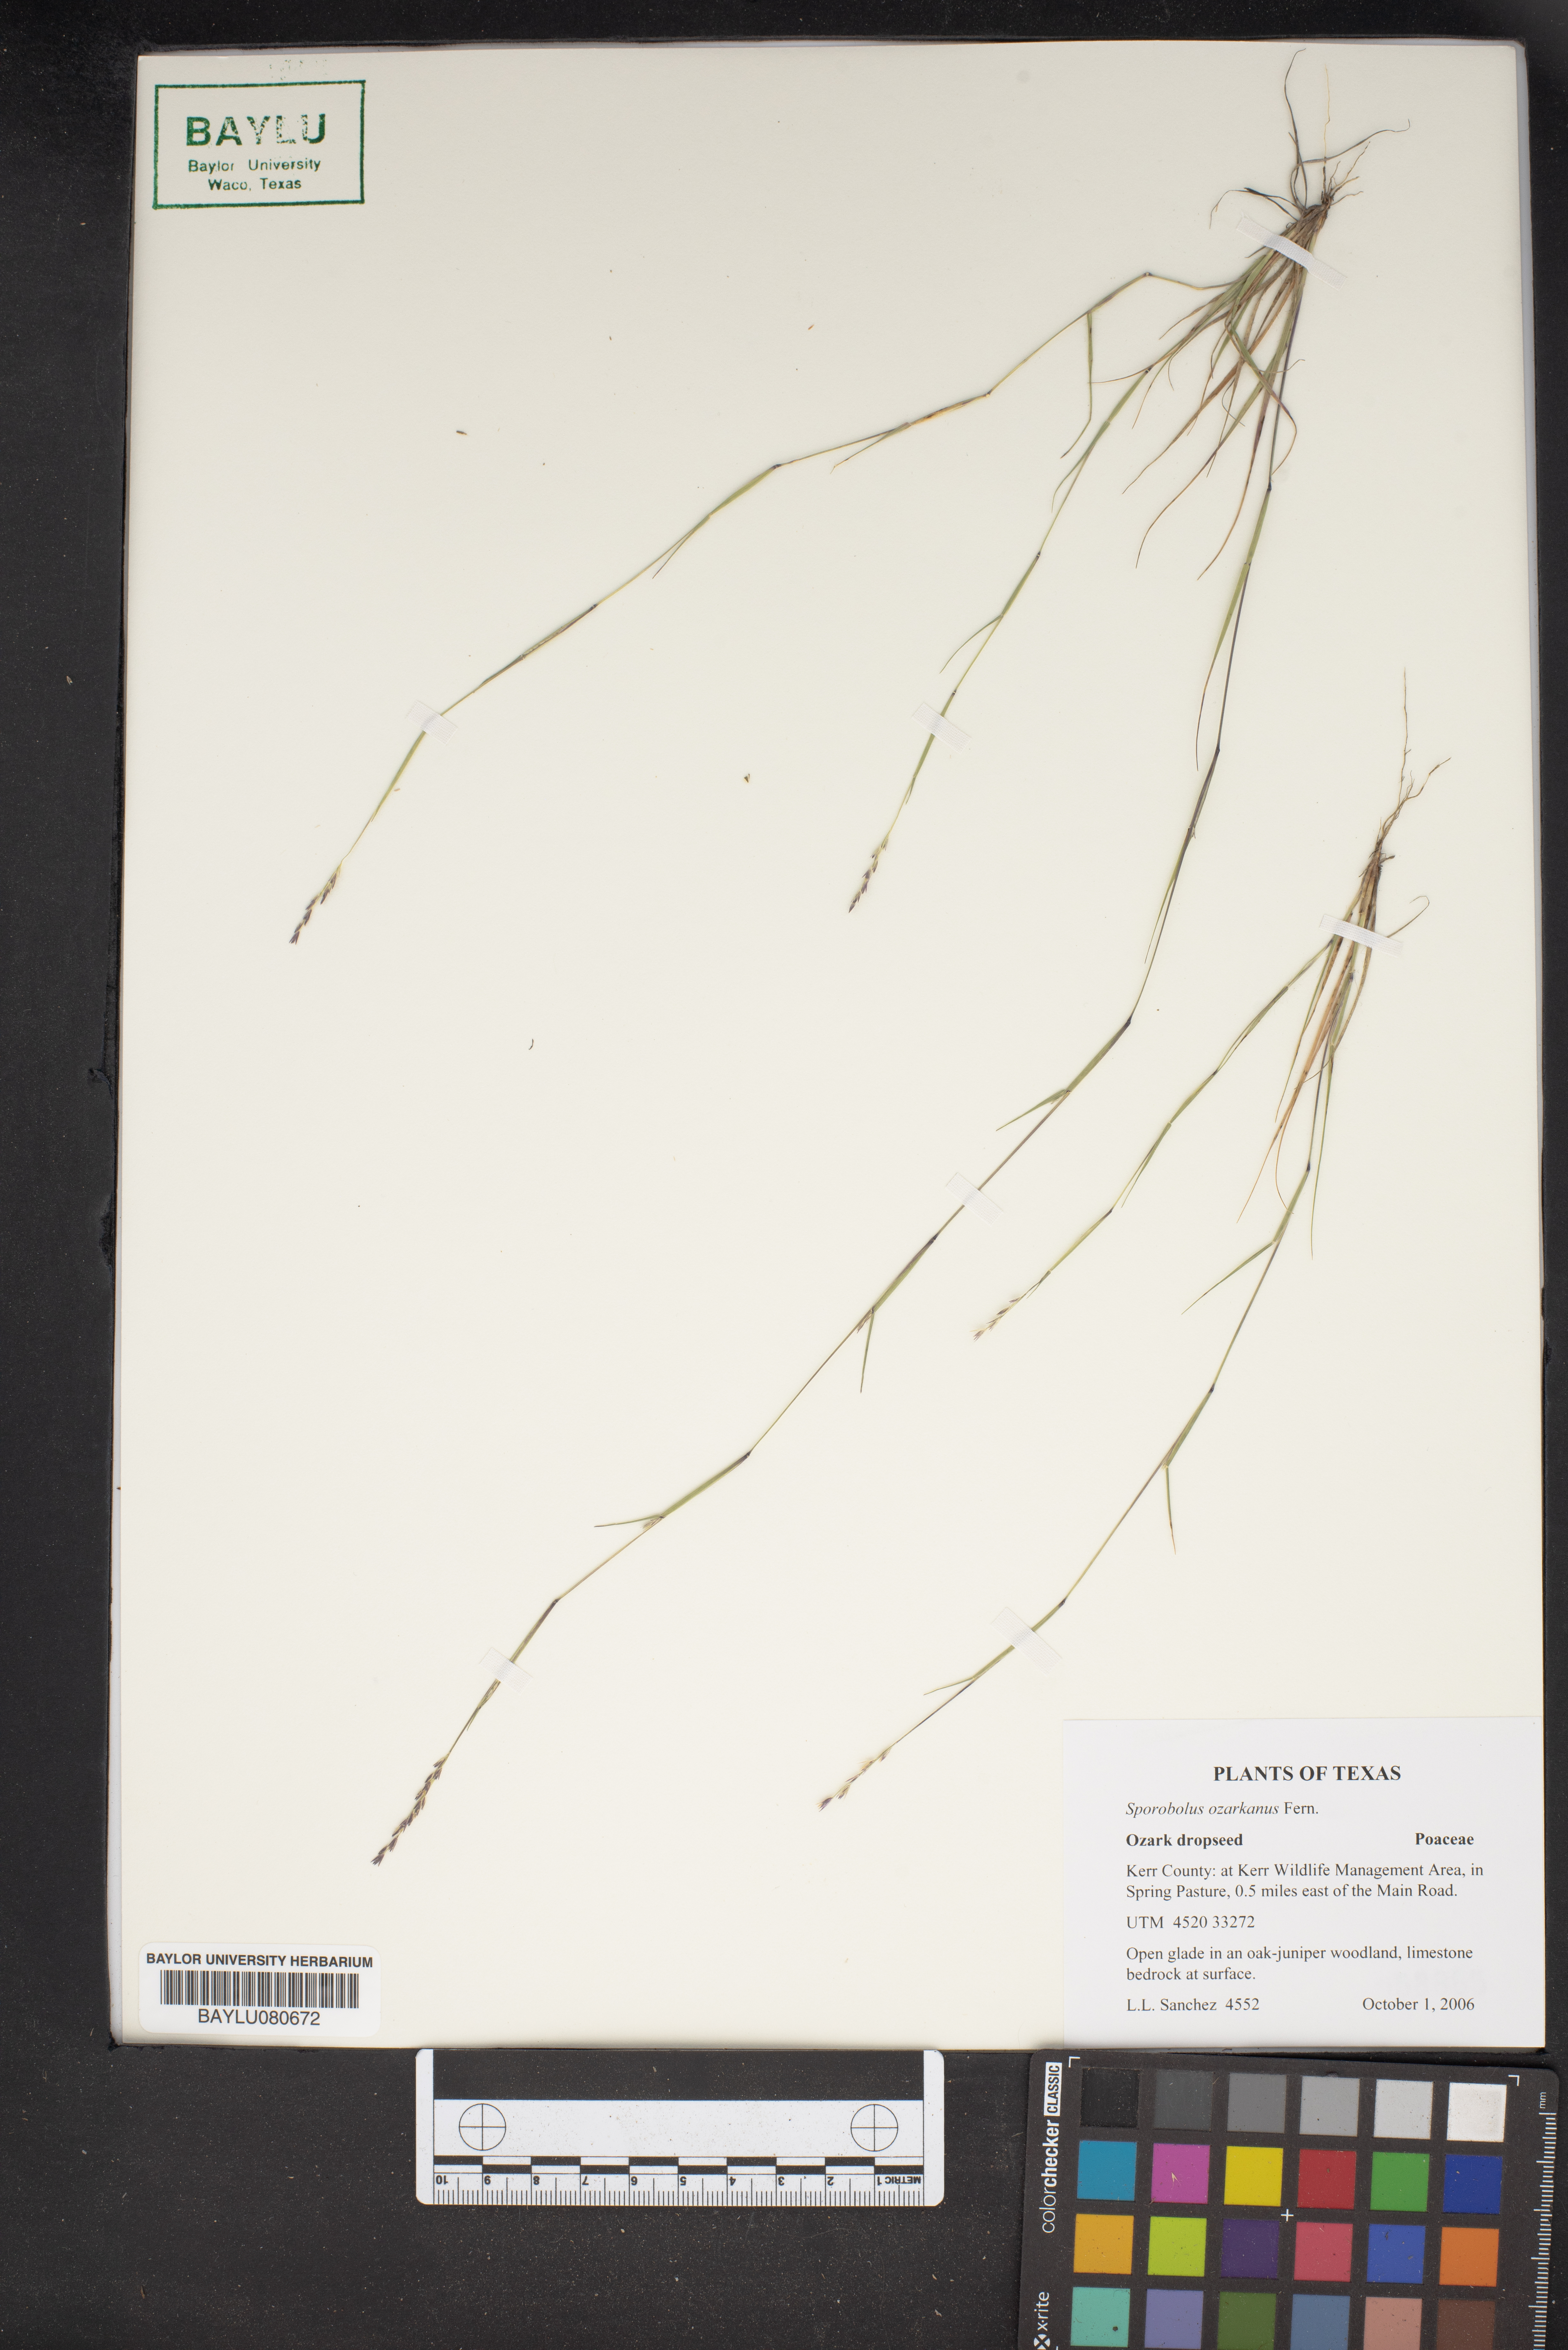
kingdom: Plantae
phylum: Tracheophyta
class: Liliopsida
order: Poales
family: Poaceae
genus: Sporobolus
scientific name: Sporobolus neglectus
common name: Annual dropseed
